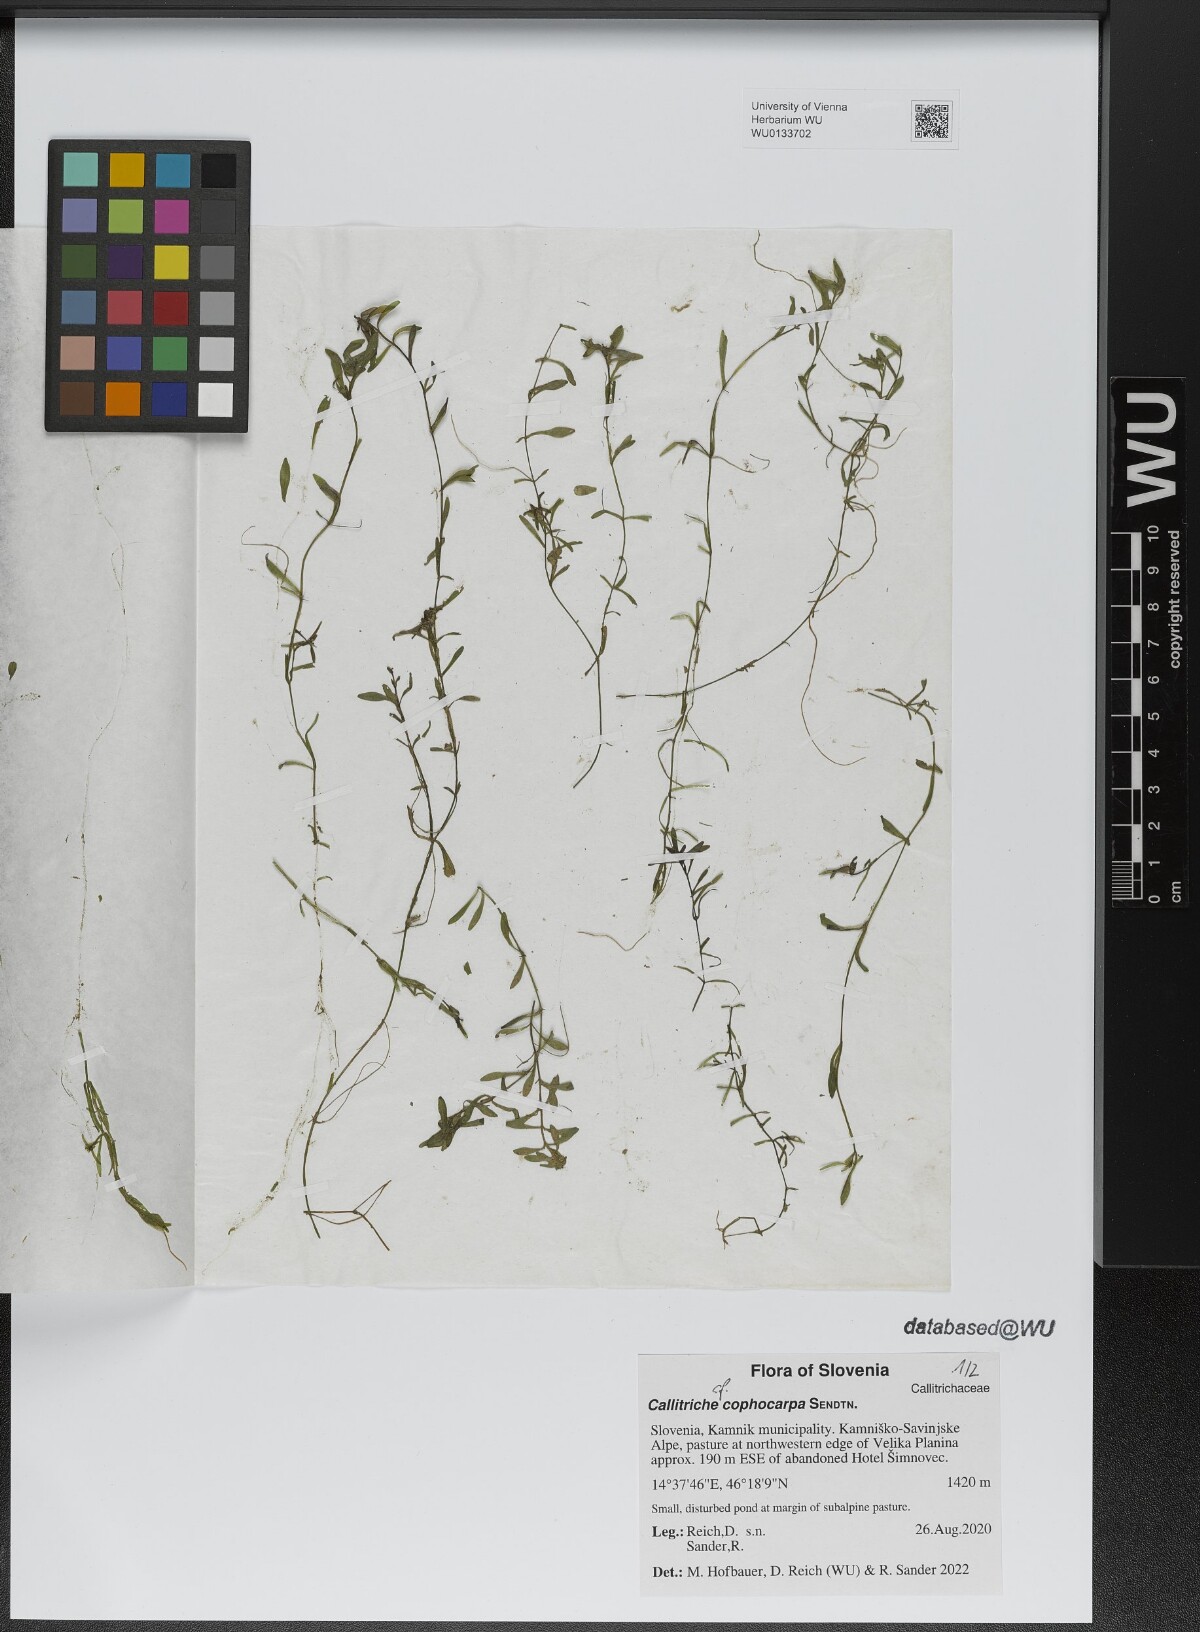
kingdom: Plantae
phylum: Tracheophyta
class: Magnoliopsida
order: Lamiales
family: Plantaginaceae
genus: Callitriche
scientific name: Callitriche cophocarpa
